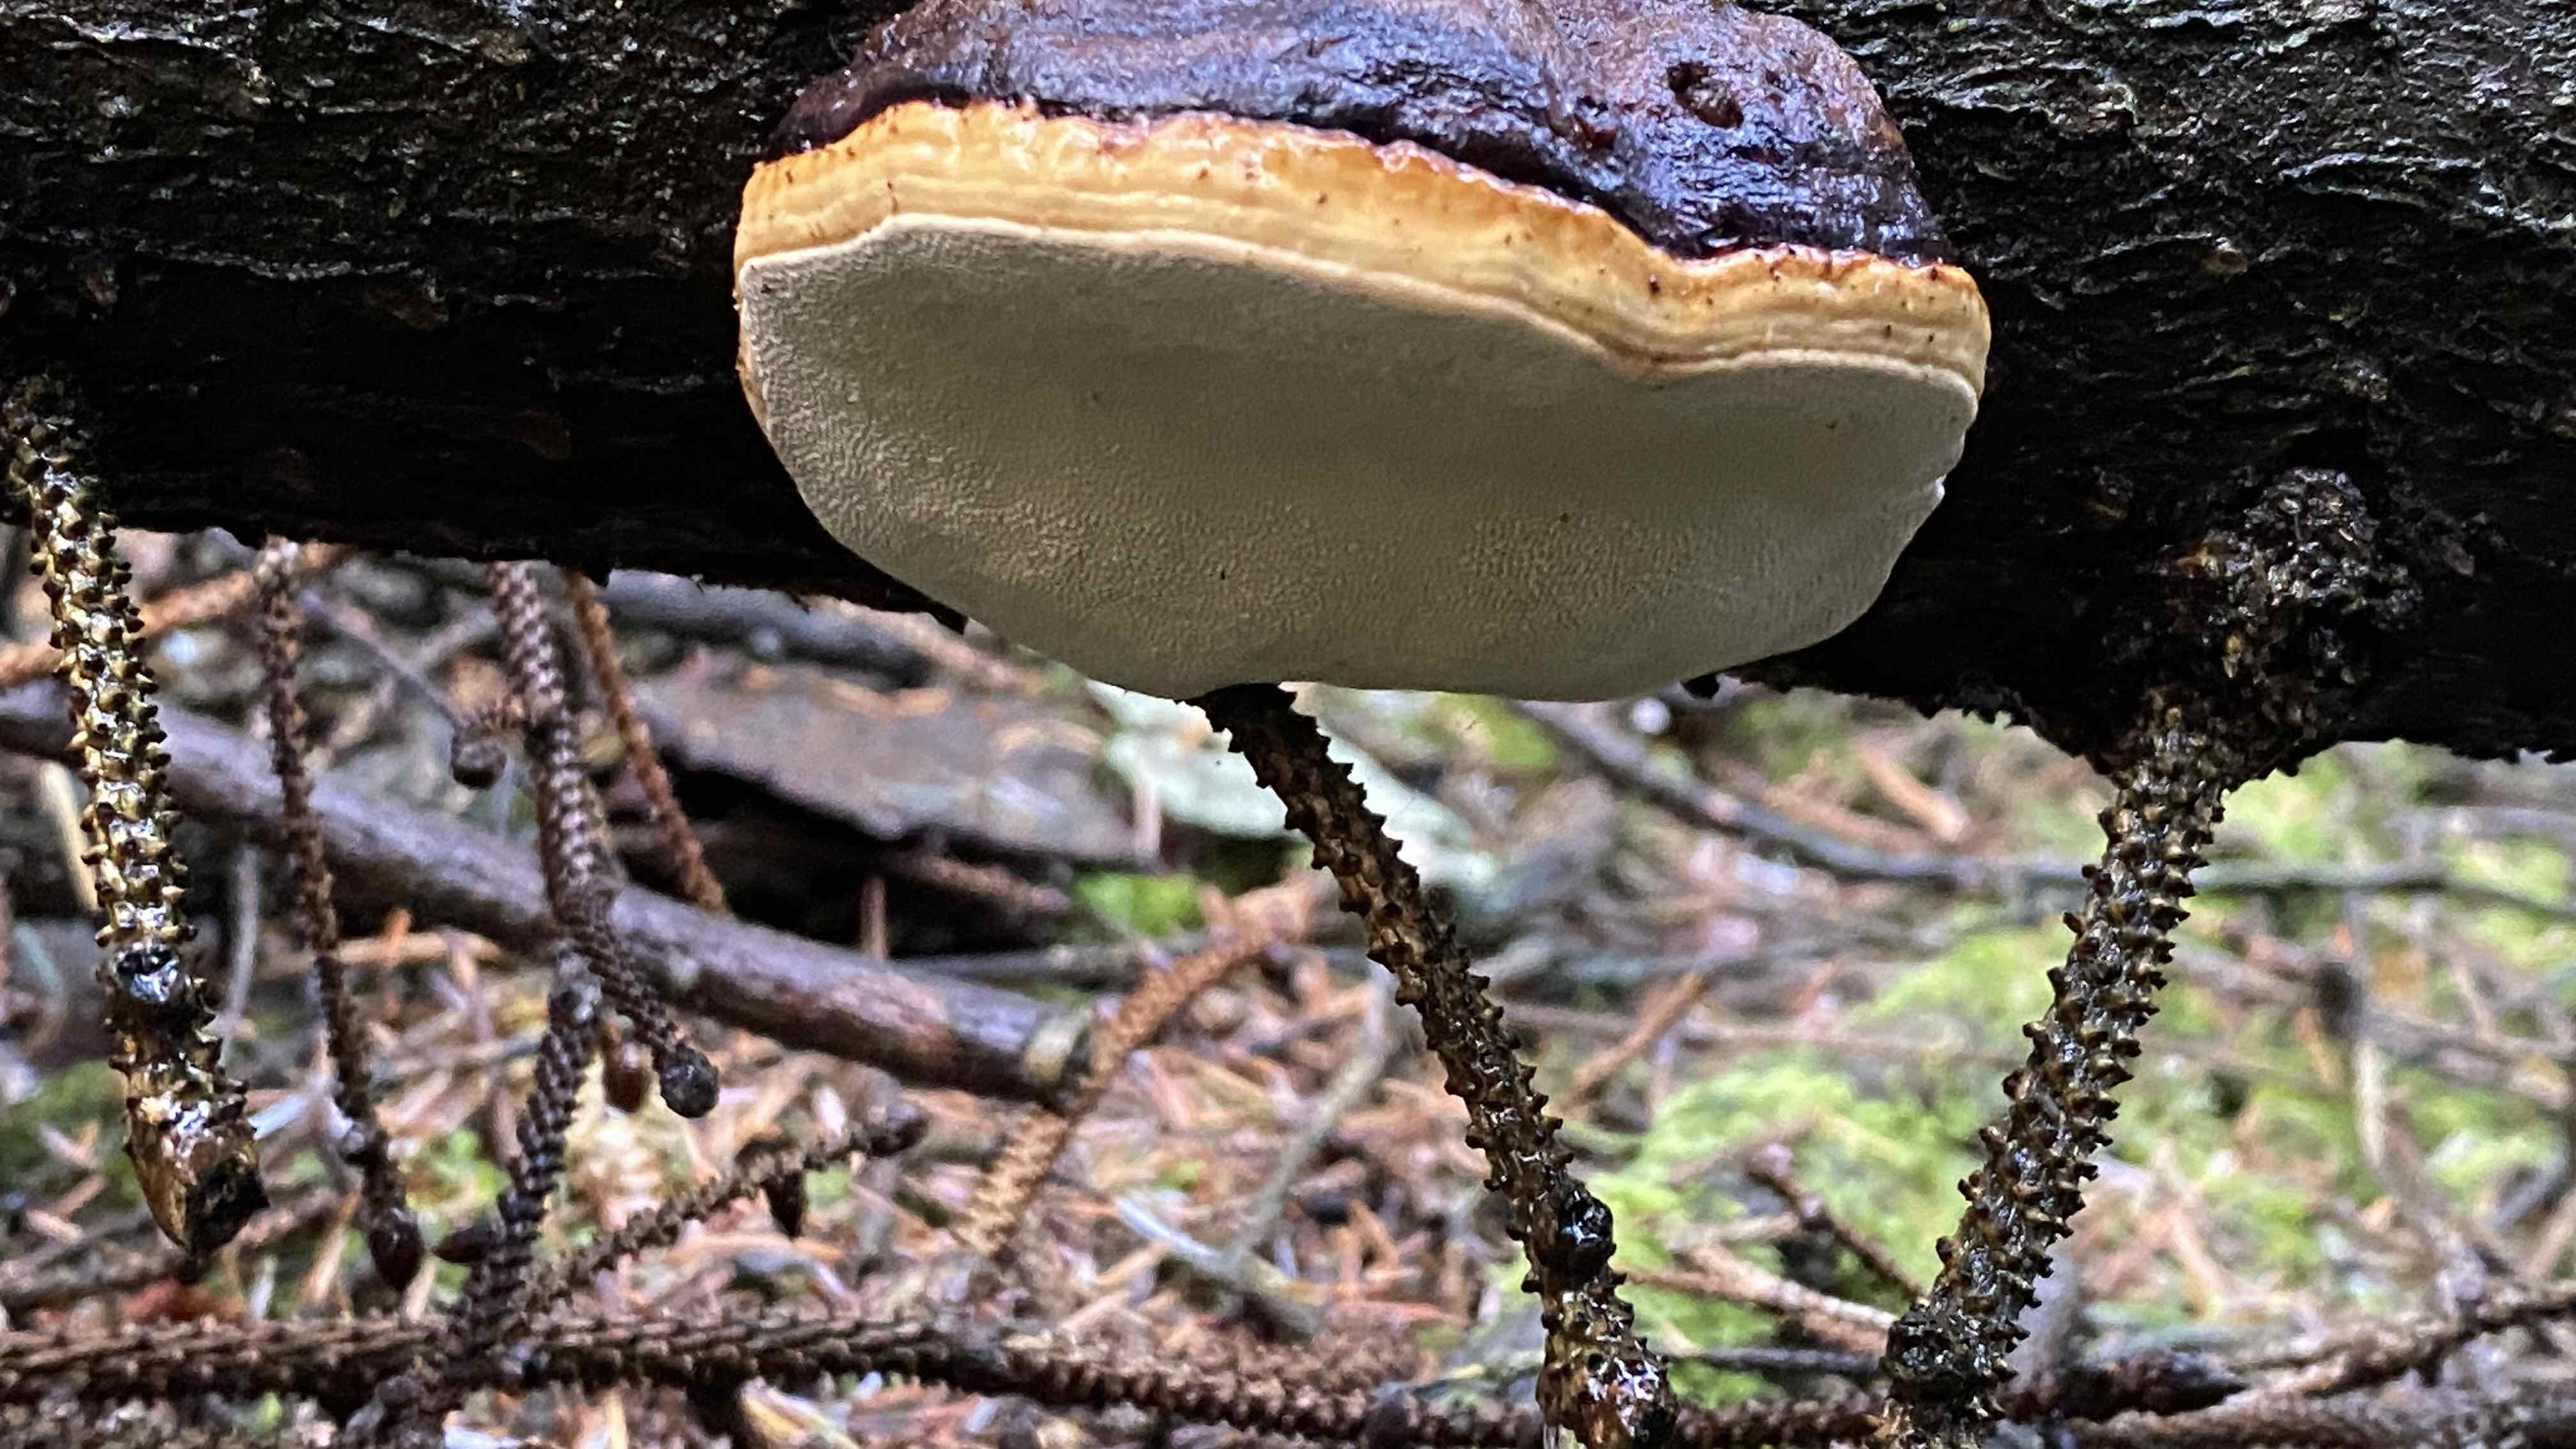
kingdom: Fungi
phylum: Basidiomycota
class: Agaricomycetes
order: Polyporales
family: Fomitopsidaceae
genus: Fomitopsis
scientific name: Fomitopsis pinicola
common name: randbæltet hovporesvamp
